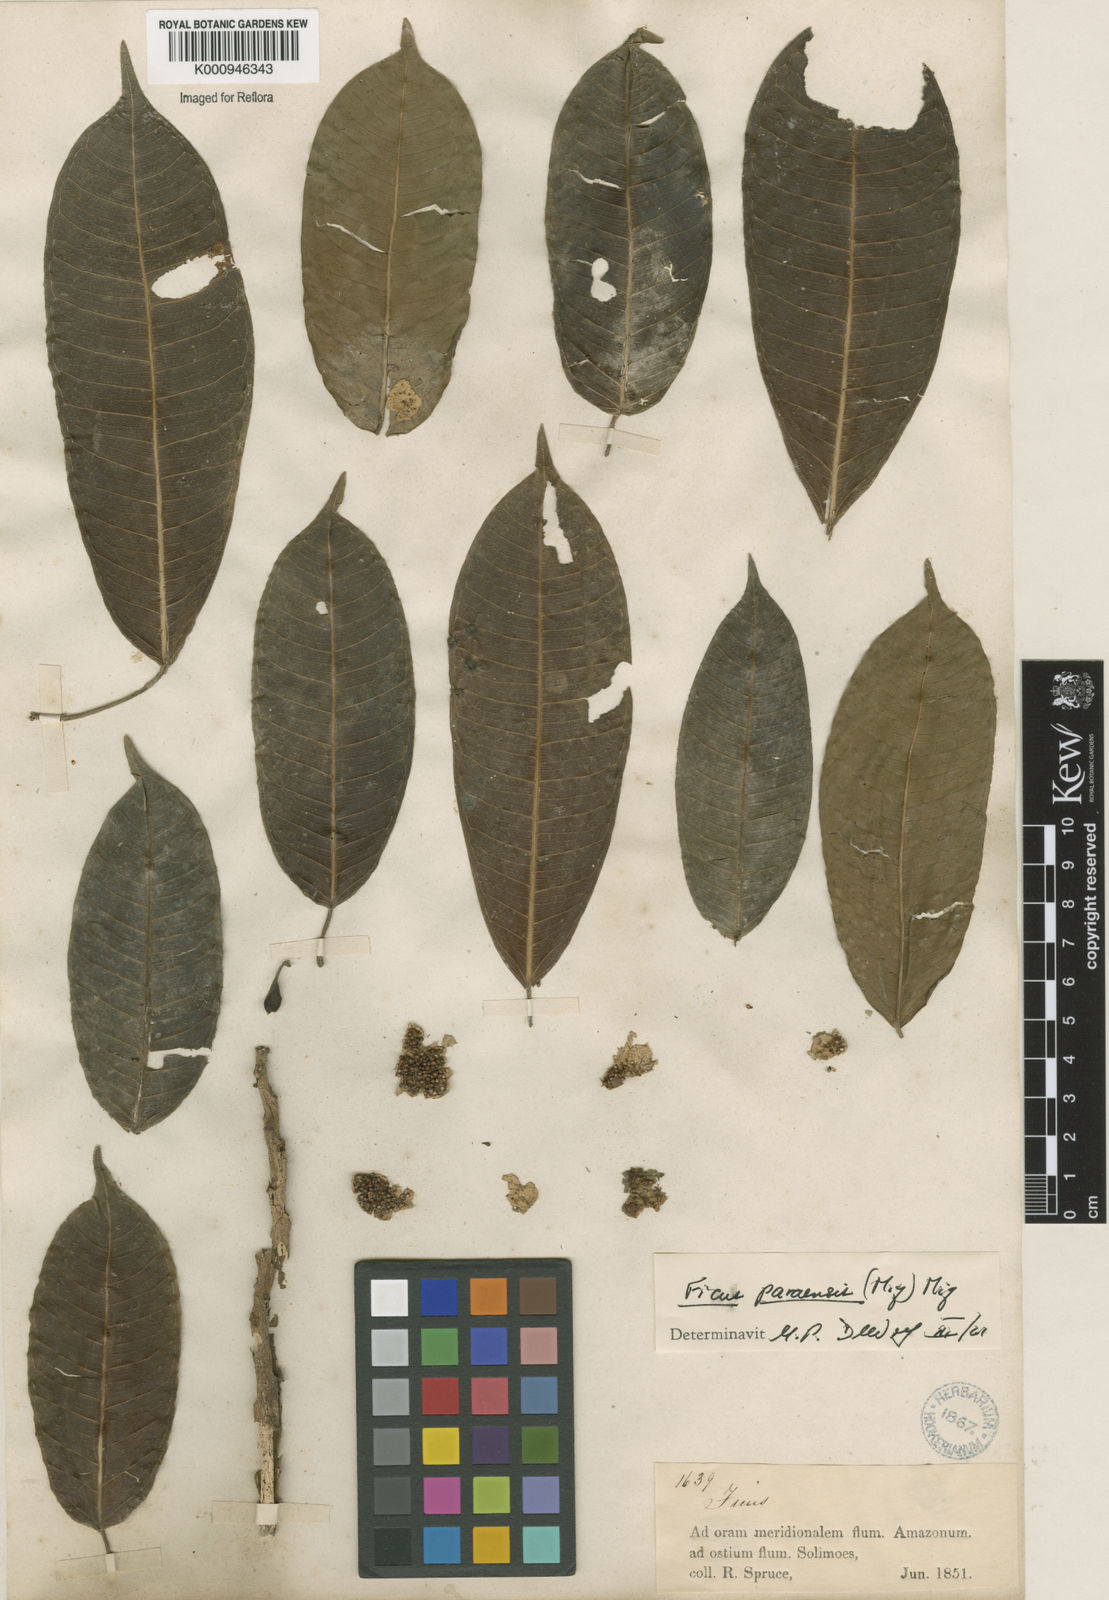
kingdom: Plantae
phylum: Tracheophyta
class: Magnoliopsida
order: Rosales
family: Moraceae
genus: Ficus
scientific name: Ficus paraensis
